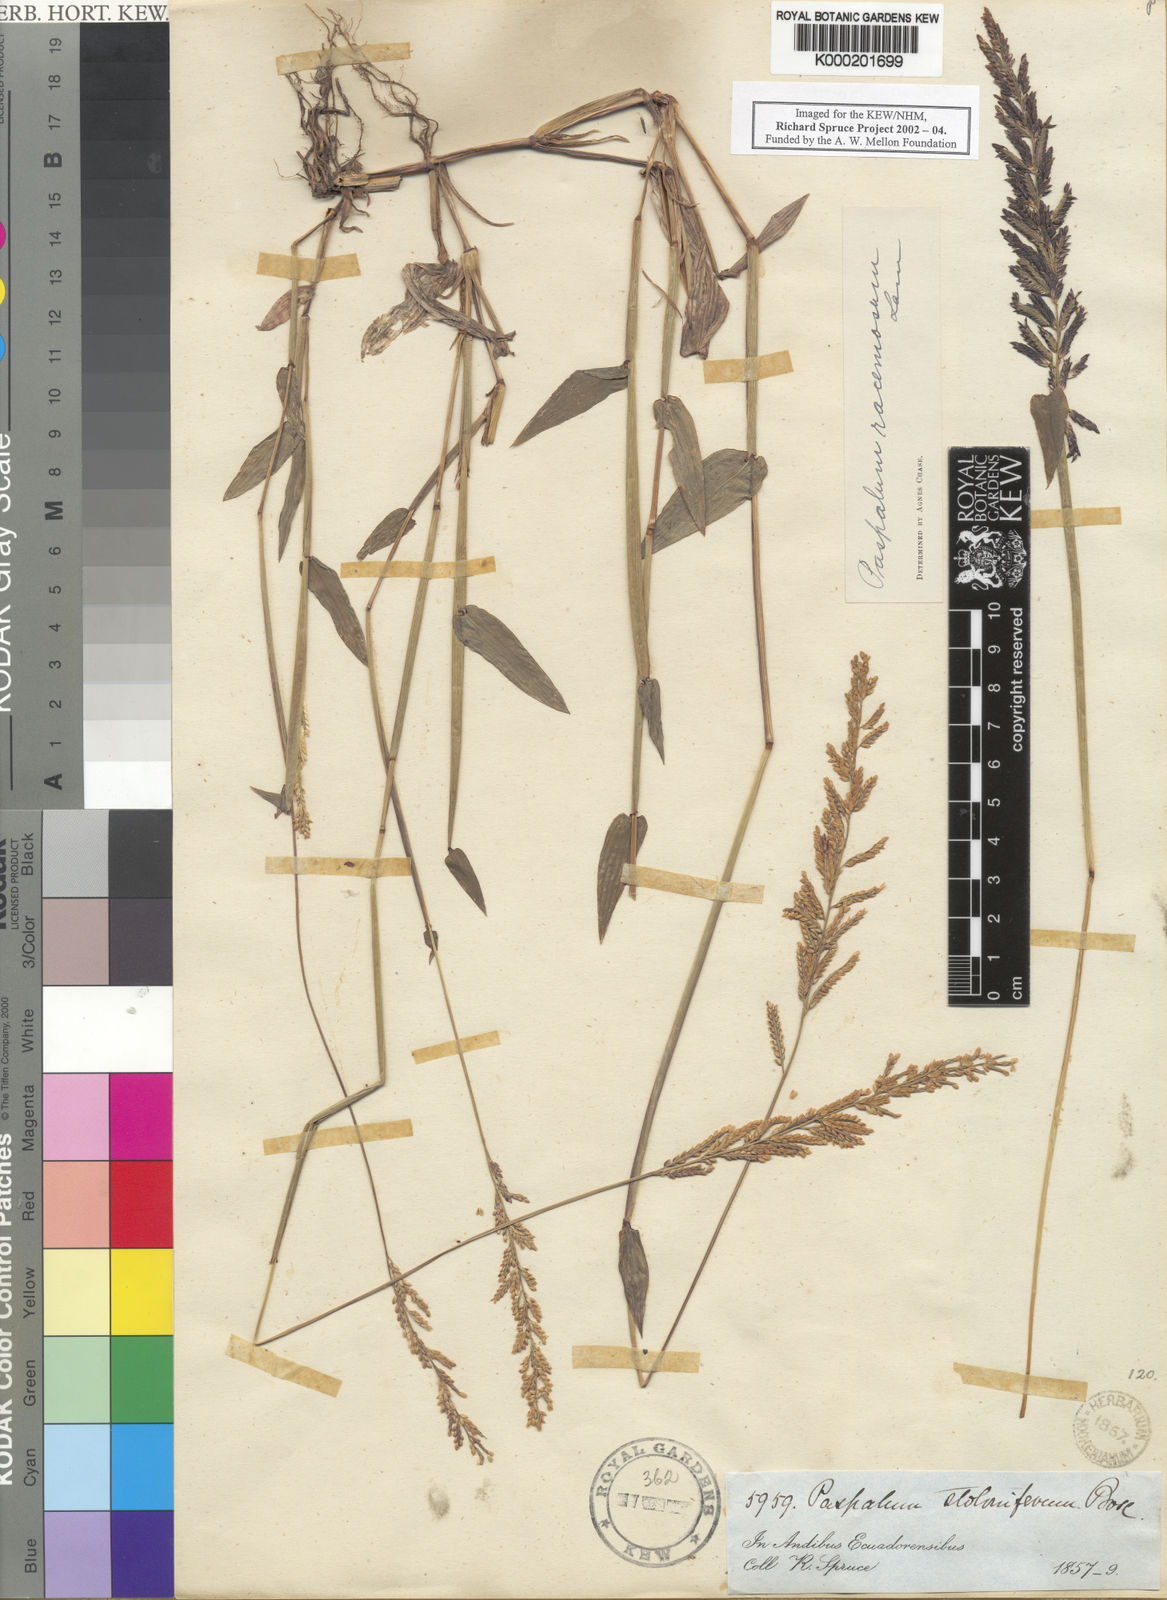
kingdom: Plantae
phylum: Tracheophyta
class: Liliopsida
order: Poales
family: Poaceae
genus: Paspalum
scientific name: Paspalum racemosum
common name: Peruvian paspalum
